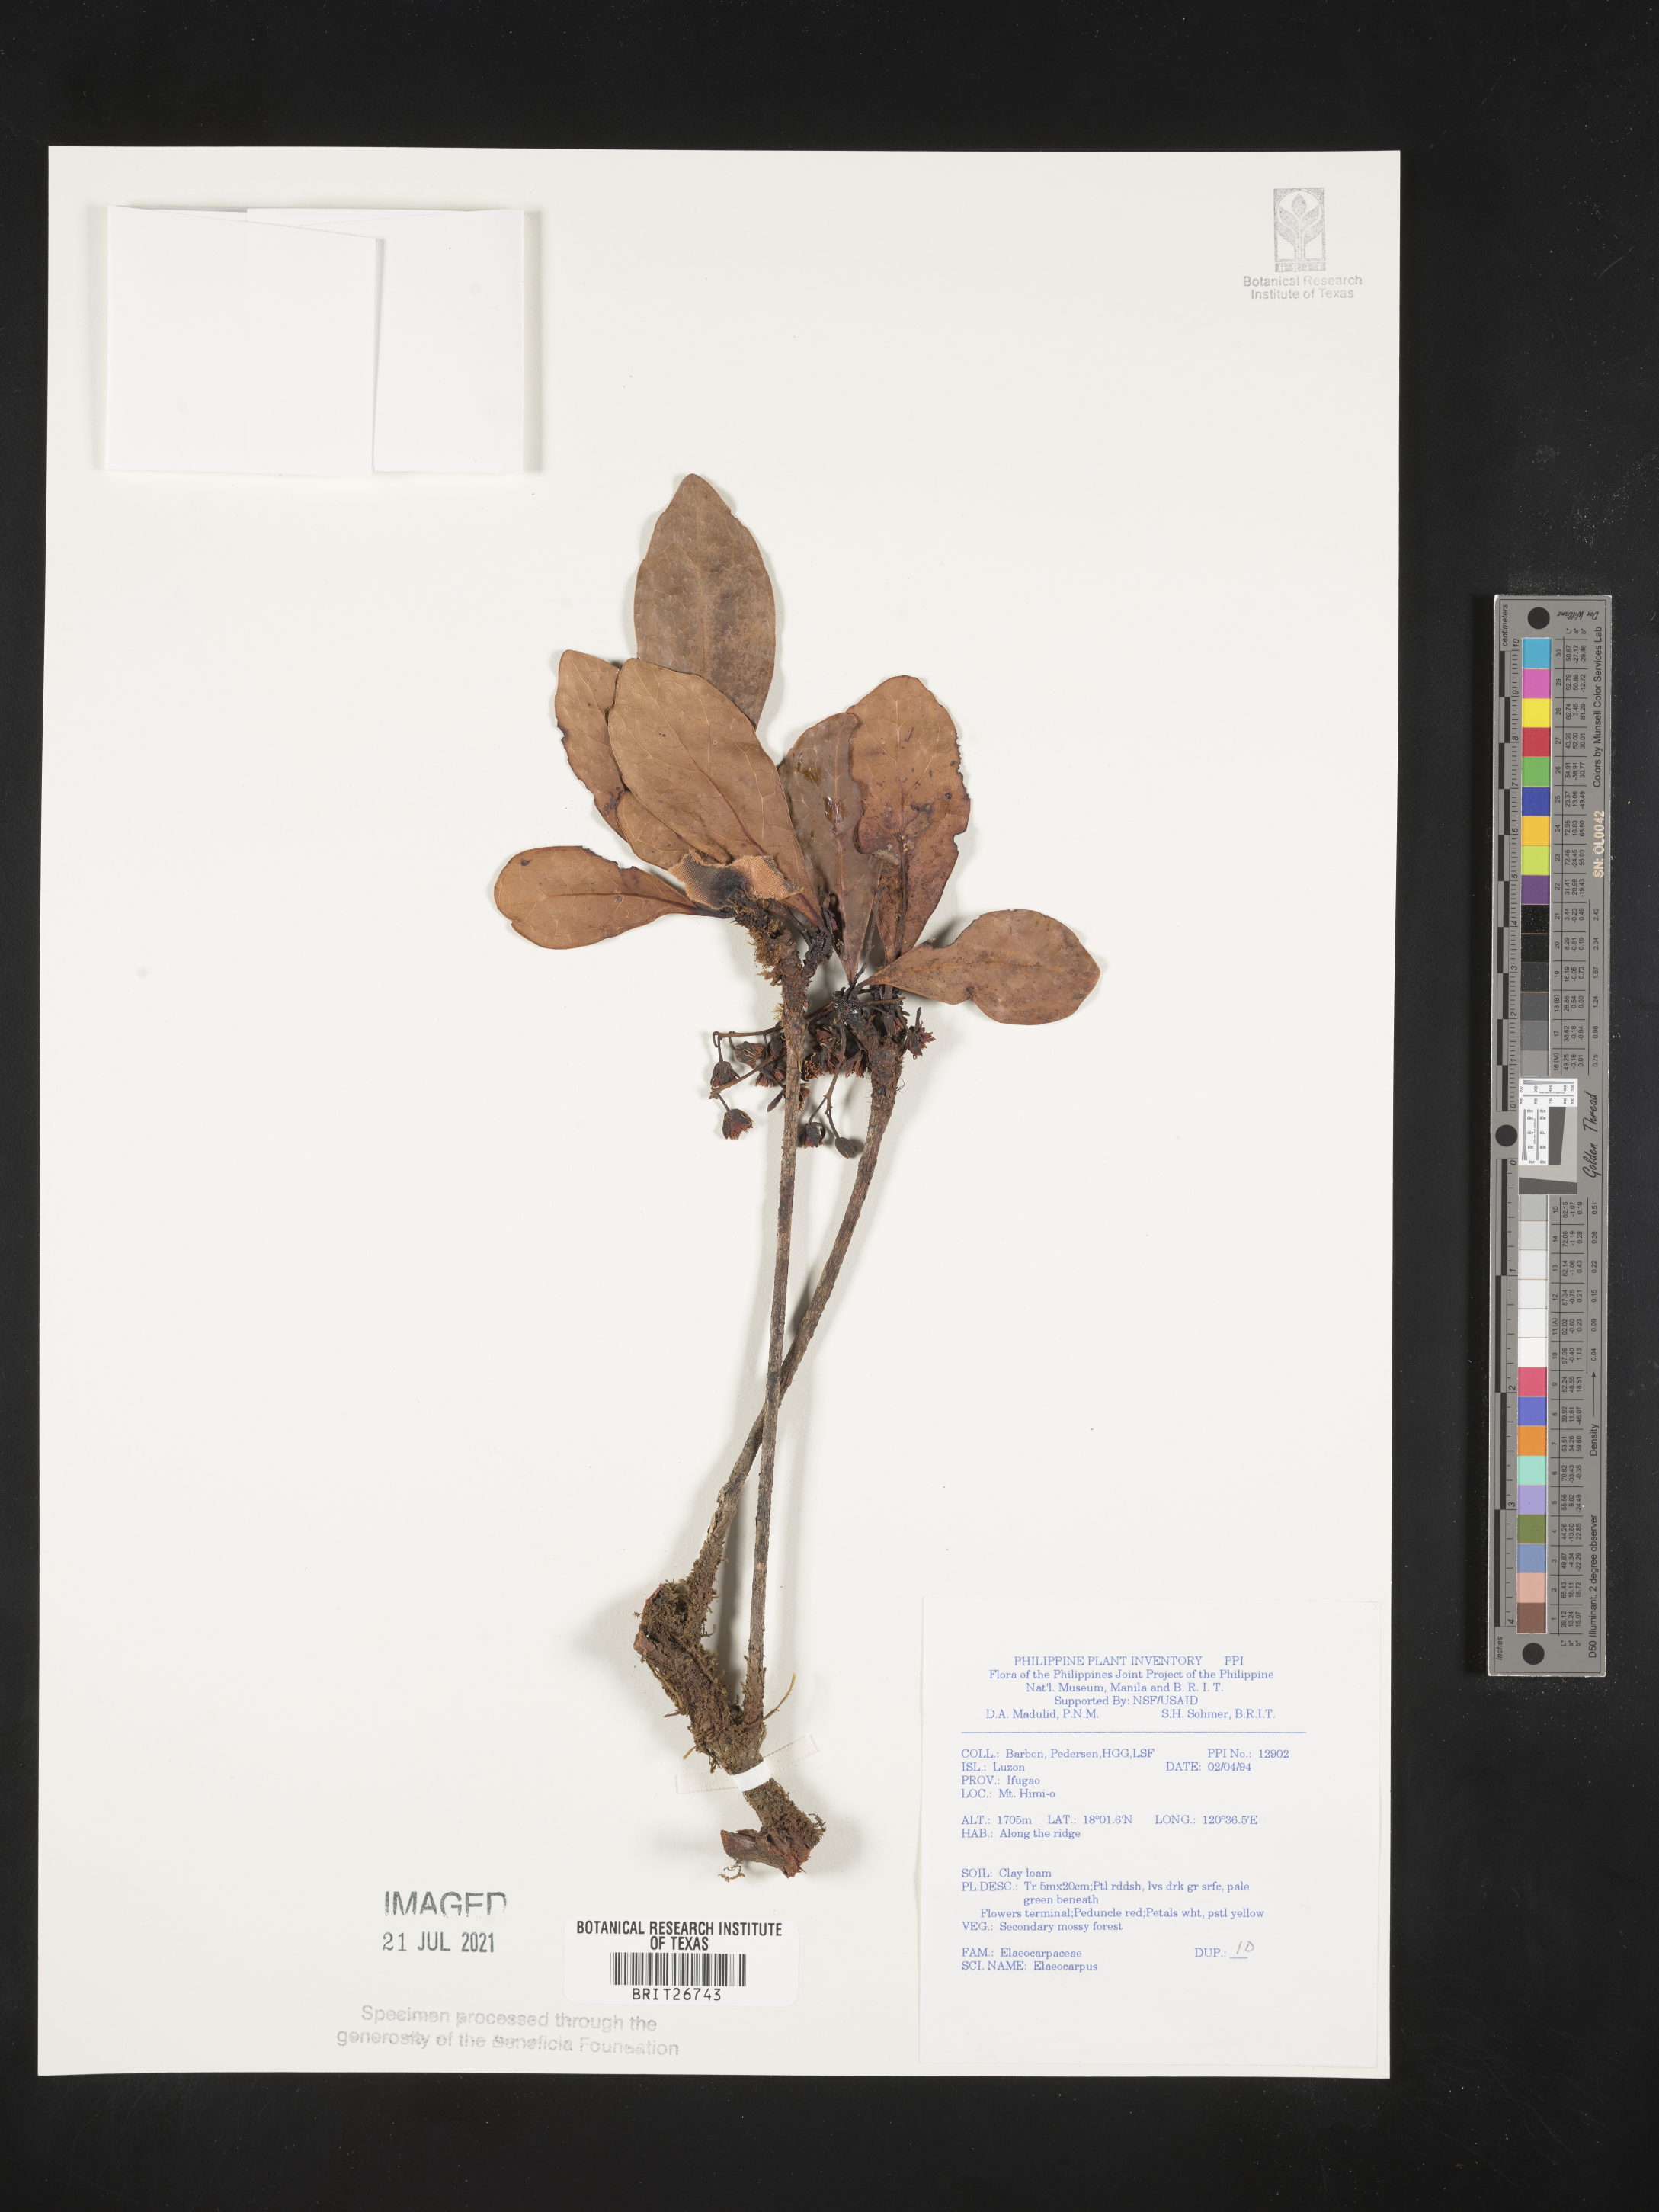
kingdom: Plantae
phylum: Tracheophyta
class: Magnoliopsida
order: Oxalidales
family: Elaeocarpaceae
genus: Elaeocarpus
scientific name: Elaeocarpus
